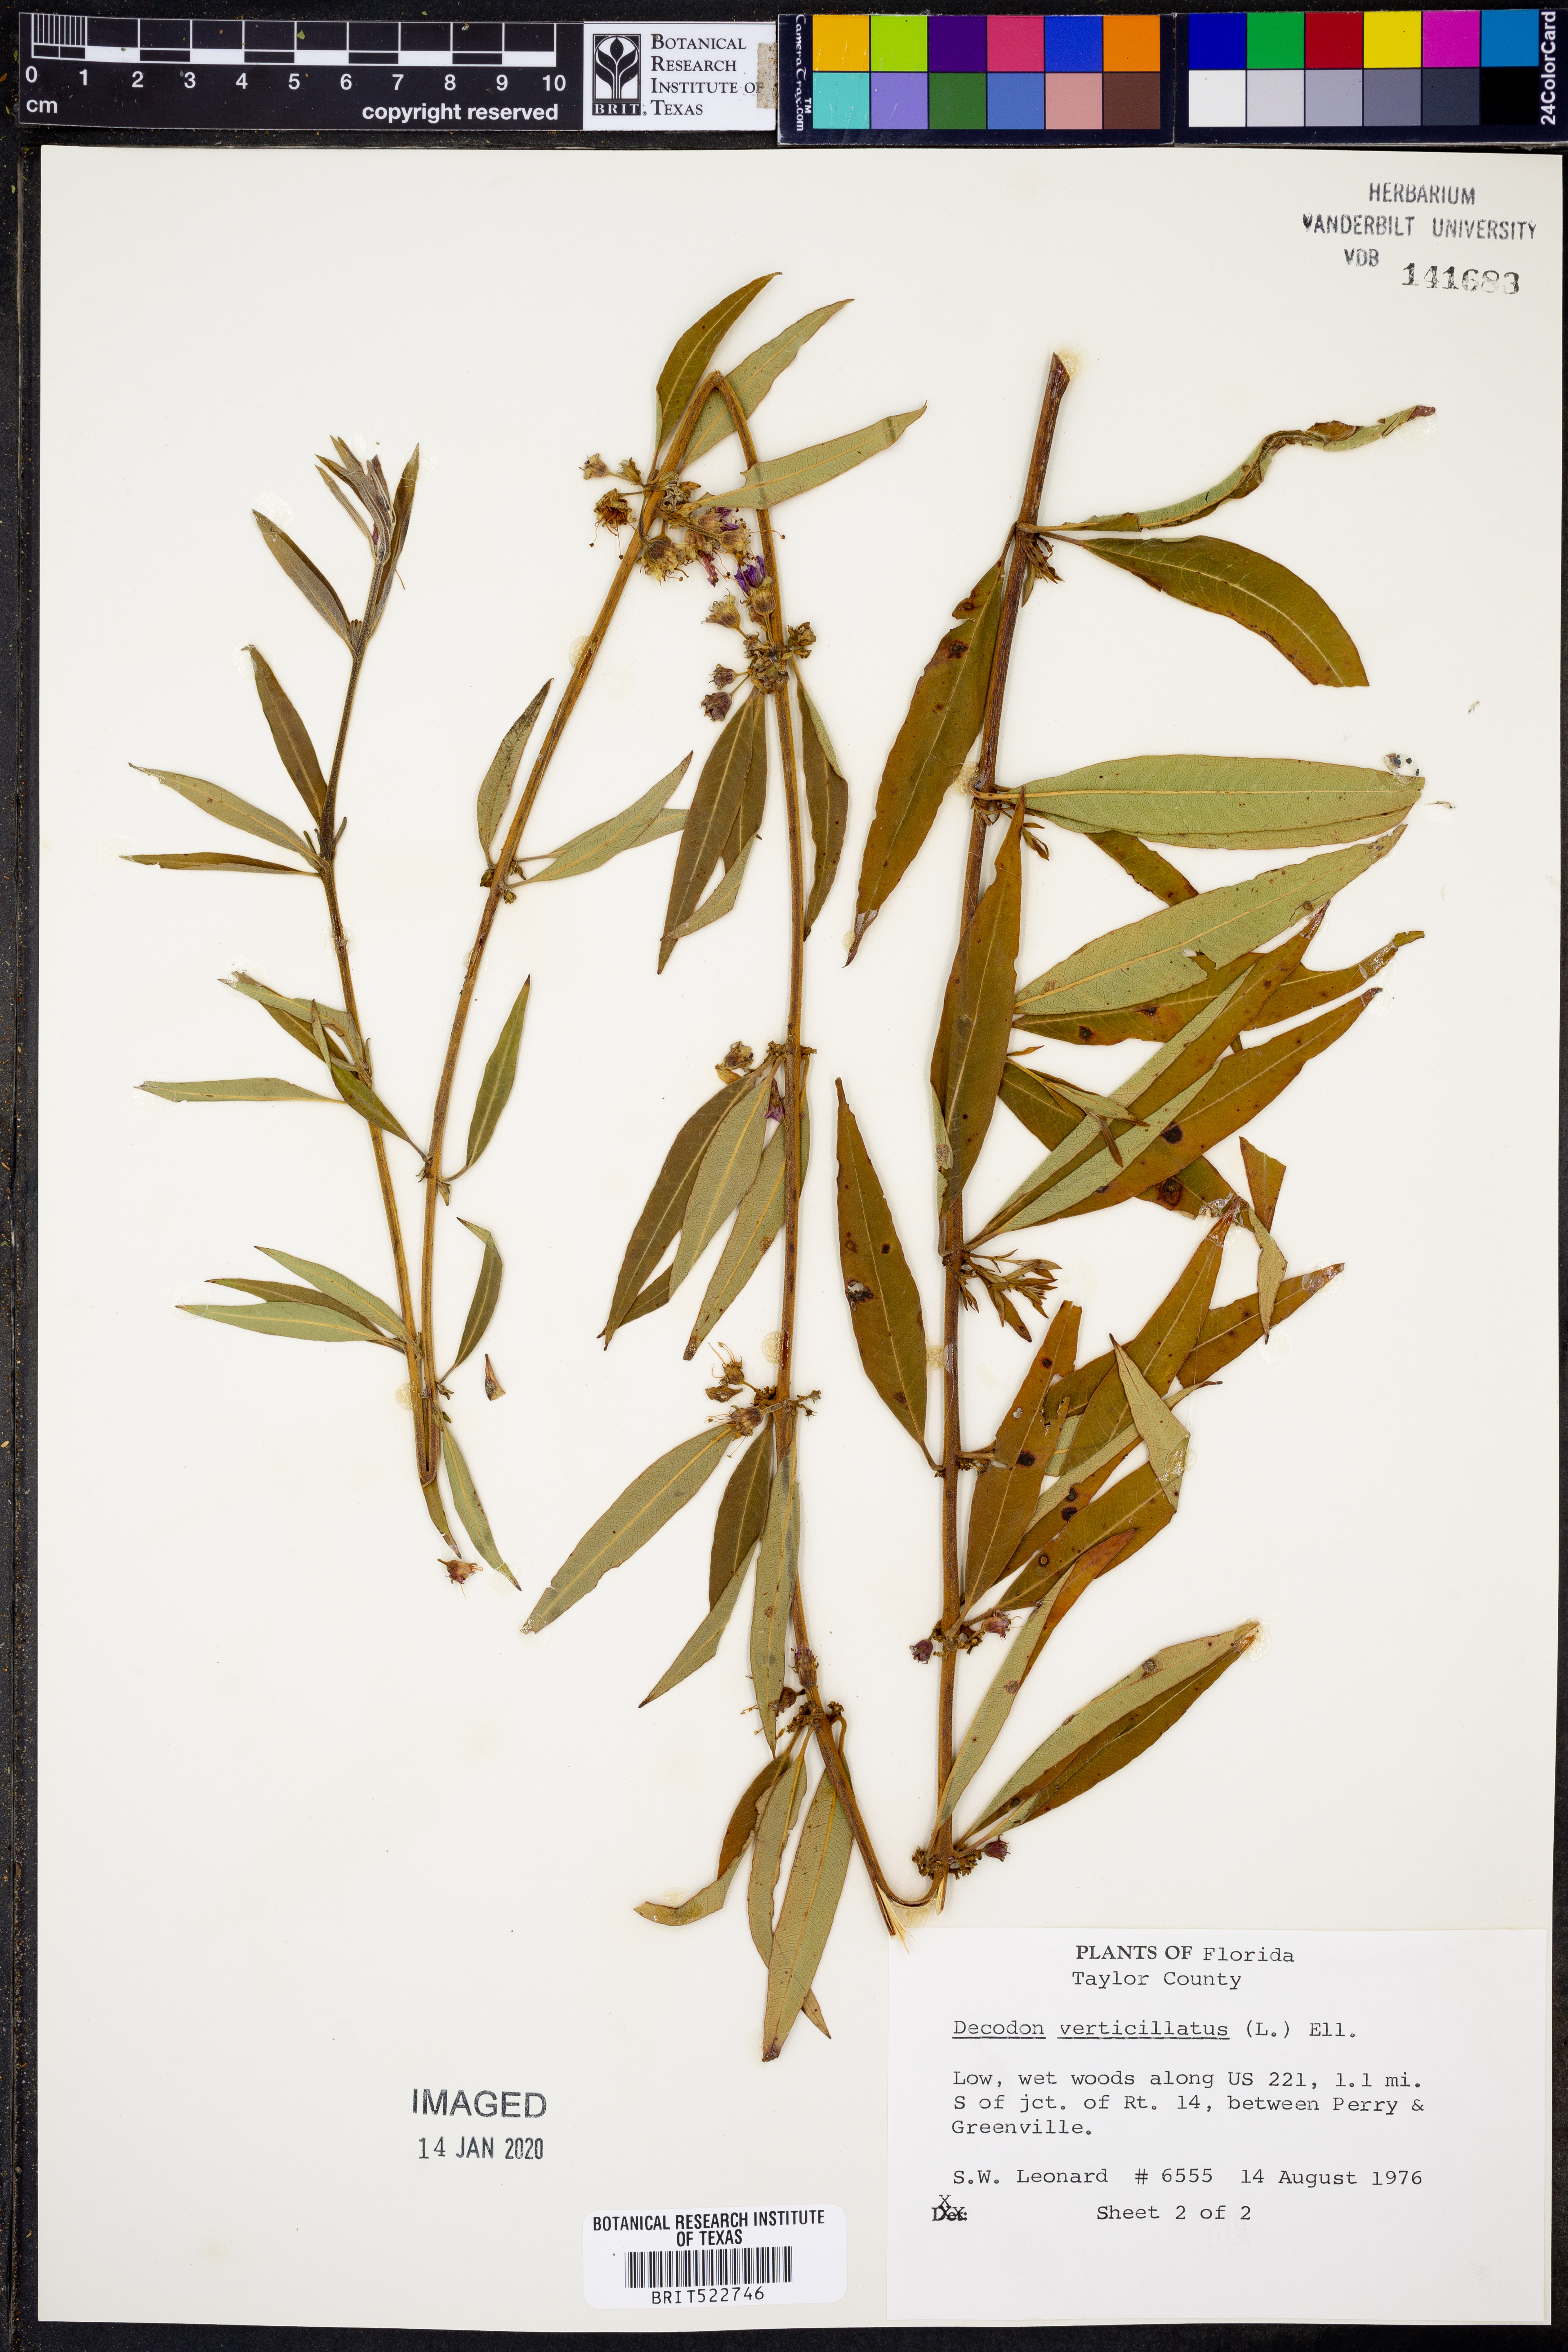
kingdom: Plantae
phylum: Tracheophyta
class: Magnoliopsida
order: Myrtales
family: Lythraceae
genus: Decodon
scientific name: Decodon verticillatus
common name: Hairy swamp loosestrife
